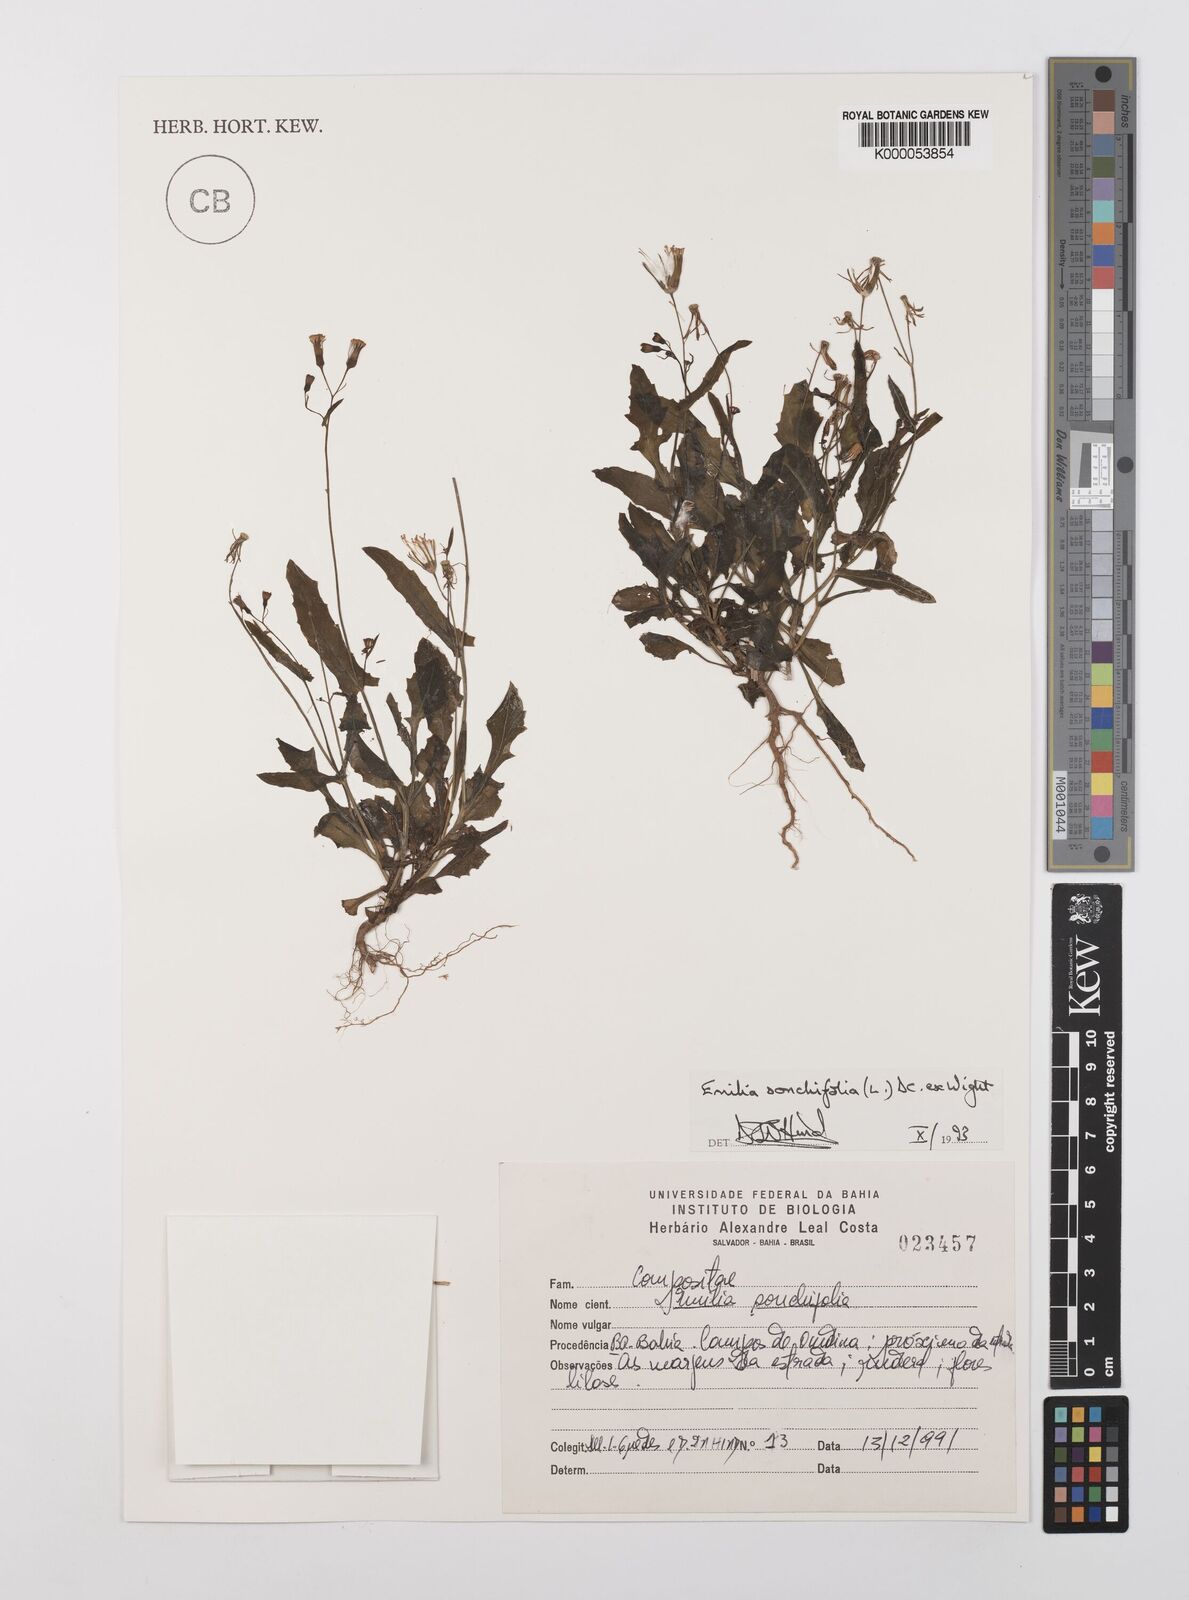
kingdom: Plantae
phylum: Tracheophyta
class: Magnoliopsida
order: Asterales
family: Asteraceae
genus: Emilia
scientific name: Emilia
